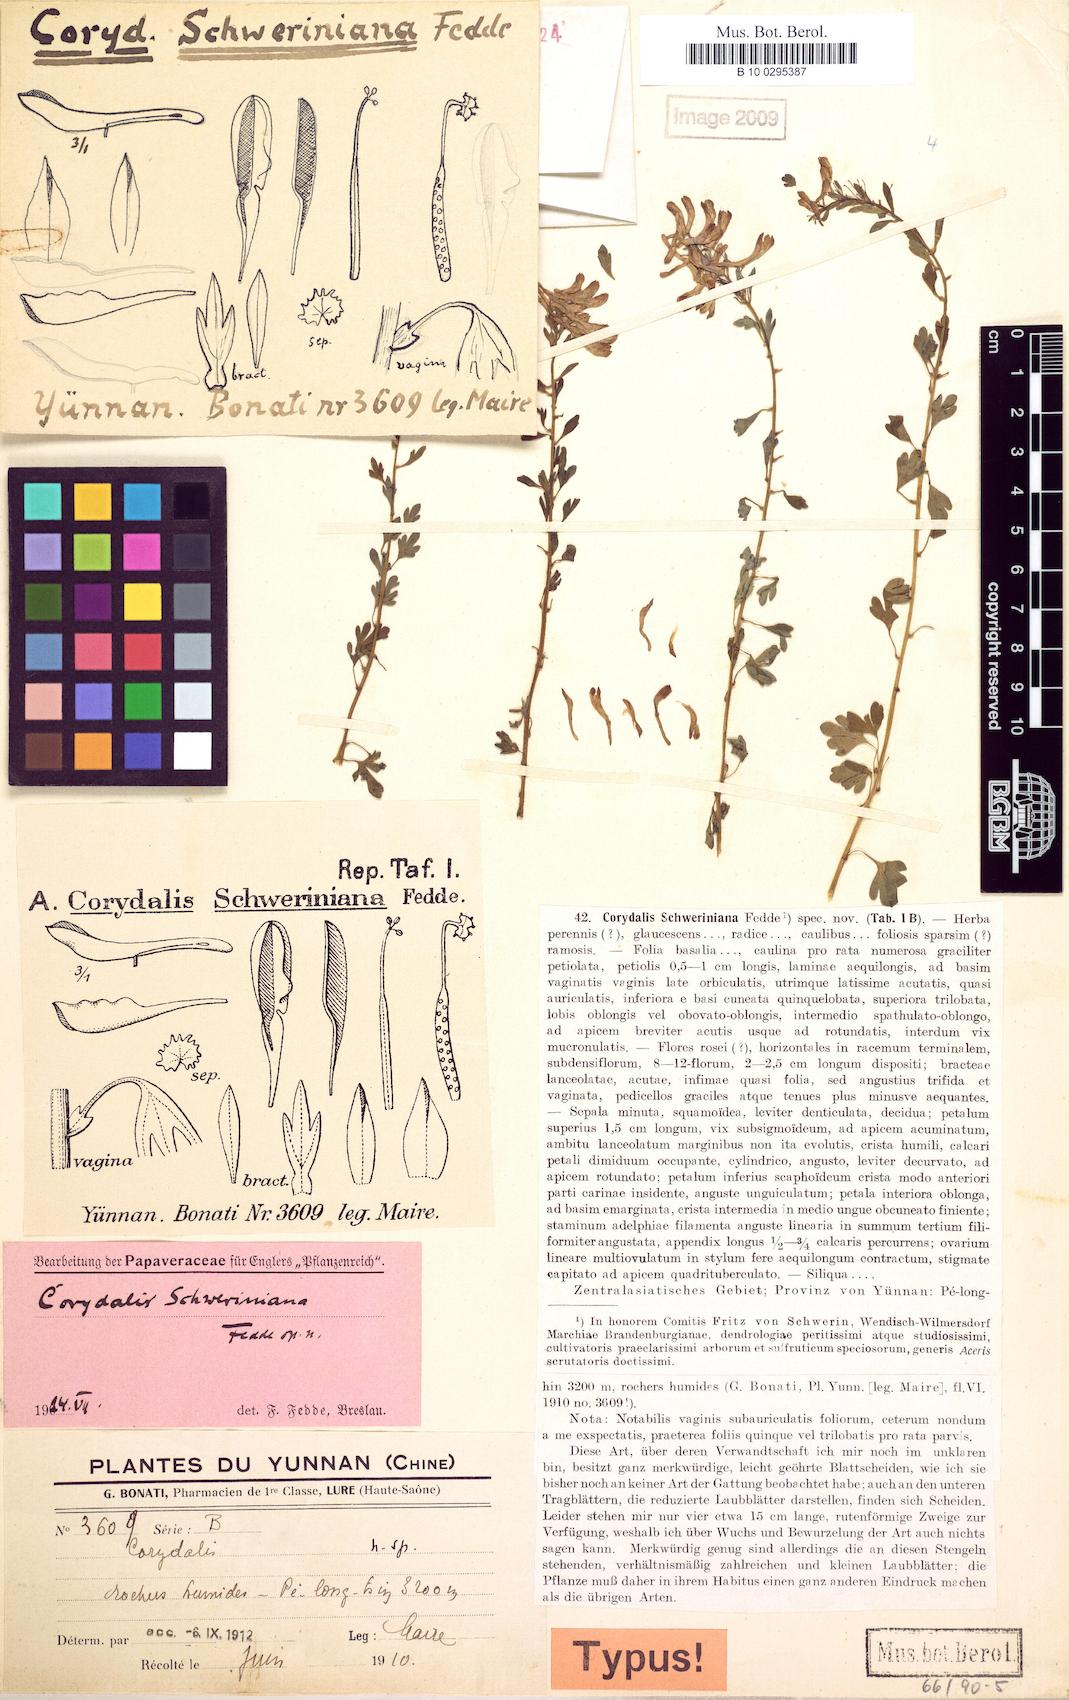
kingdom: Plantae
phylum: Tracheophyta
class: Magnoliopsida
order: Ranunculales
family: Papaveraceae
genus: Corydalis
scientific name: Corydalis schweriniana
